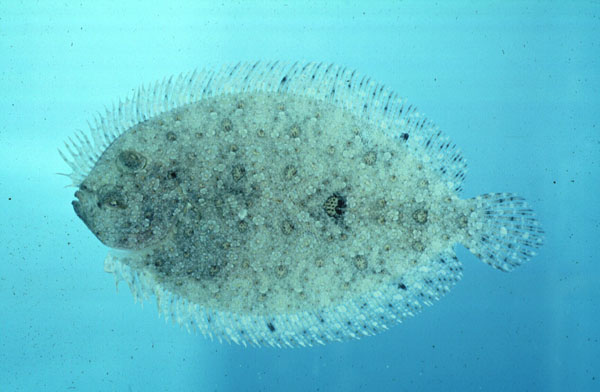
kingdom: Animalia
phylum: Chordata
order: Pleuronectiformes
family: Bothidae
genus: Bothus
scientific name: Bothus pantherinus
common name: Leopard flounder
